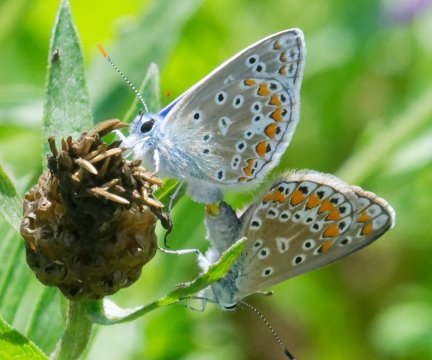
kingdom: Animalia
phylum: Arthropoda
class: Insecta
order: Lepidoptera
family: Lycaenidae
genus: Polyommatus
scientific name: Polyommatus icarus
